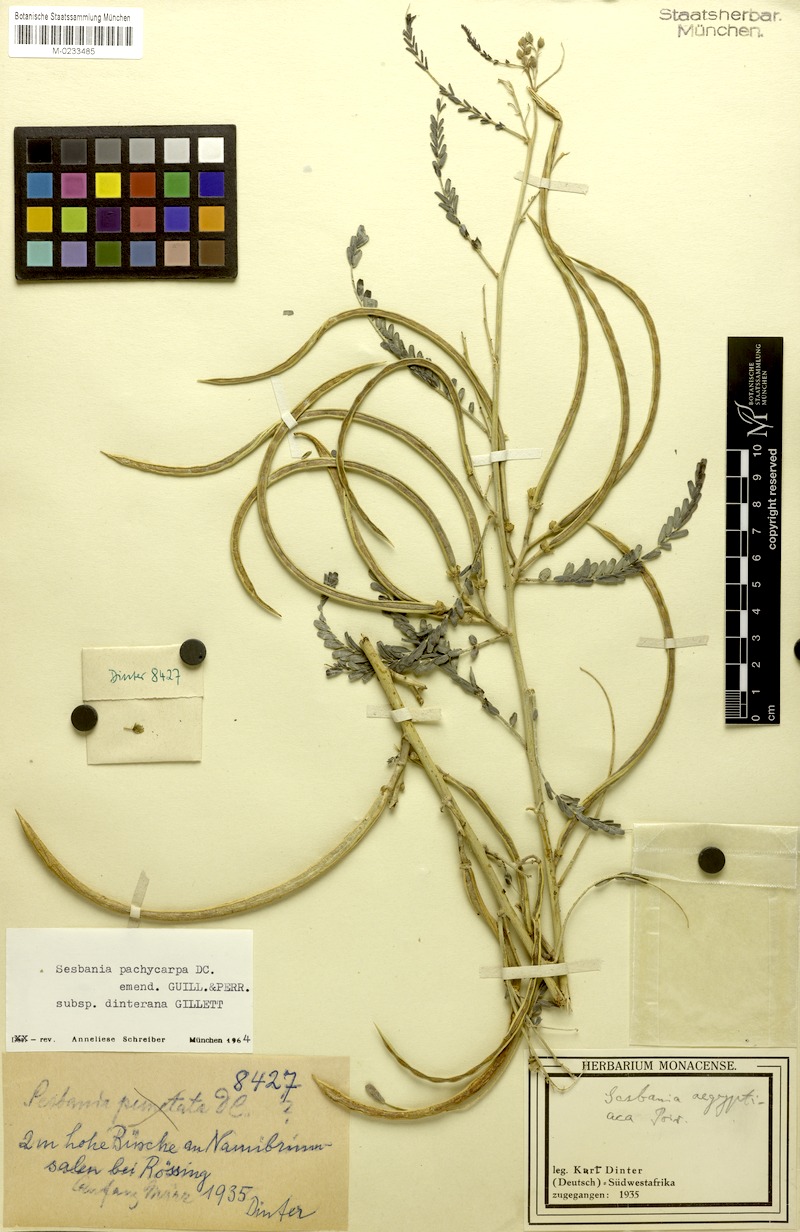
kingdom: Plantae
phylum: Tracheophyta
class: Magnoliopsida
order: Fabales
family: Fabaceae
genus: Sesbania
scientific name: Sesbania pachycarpa
